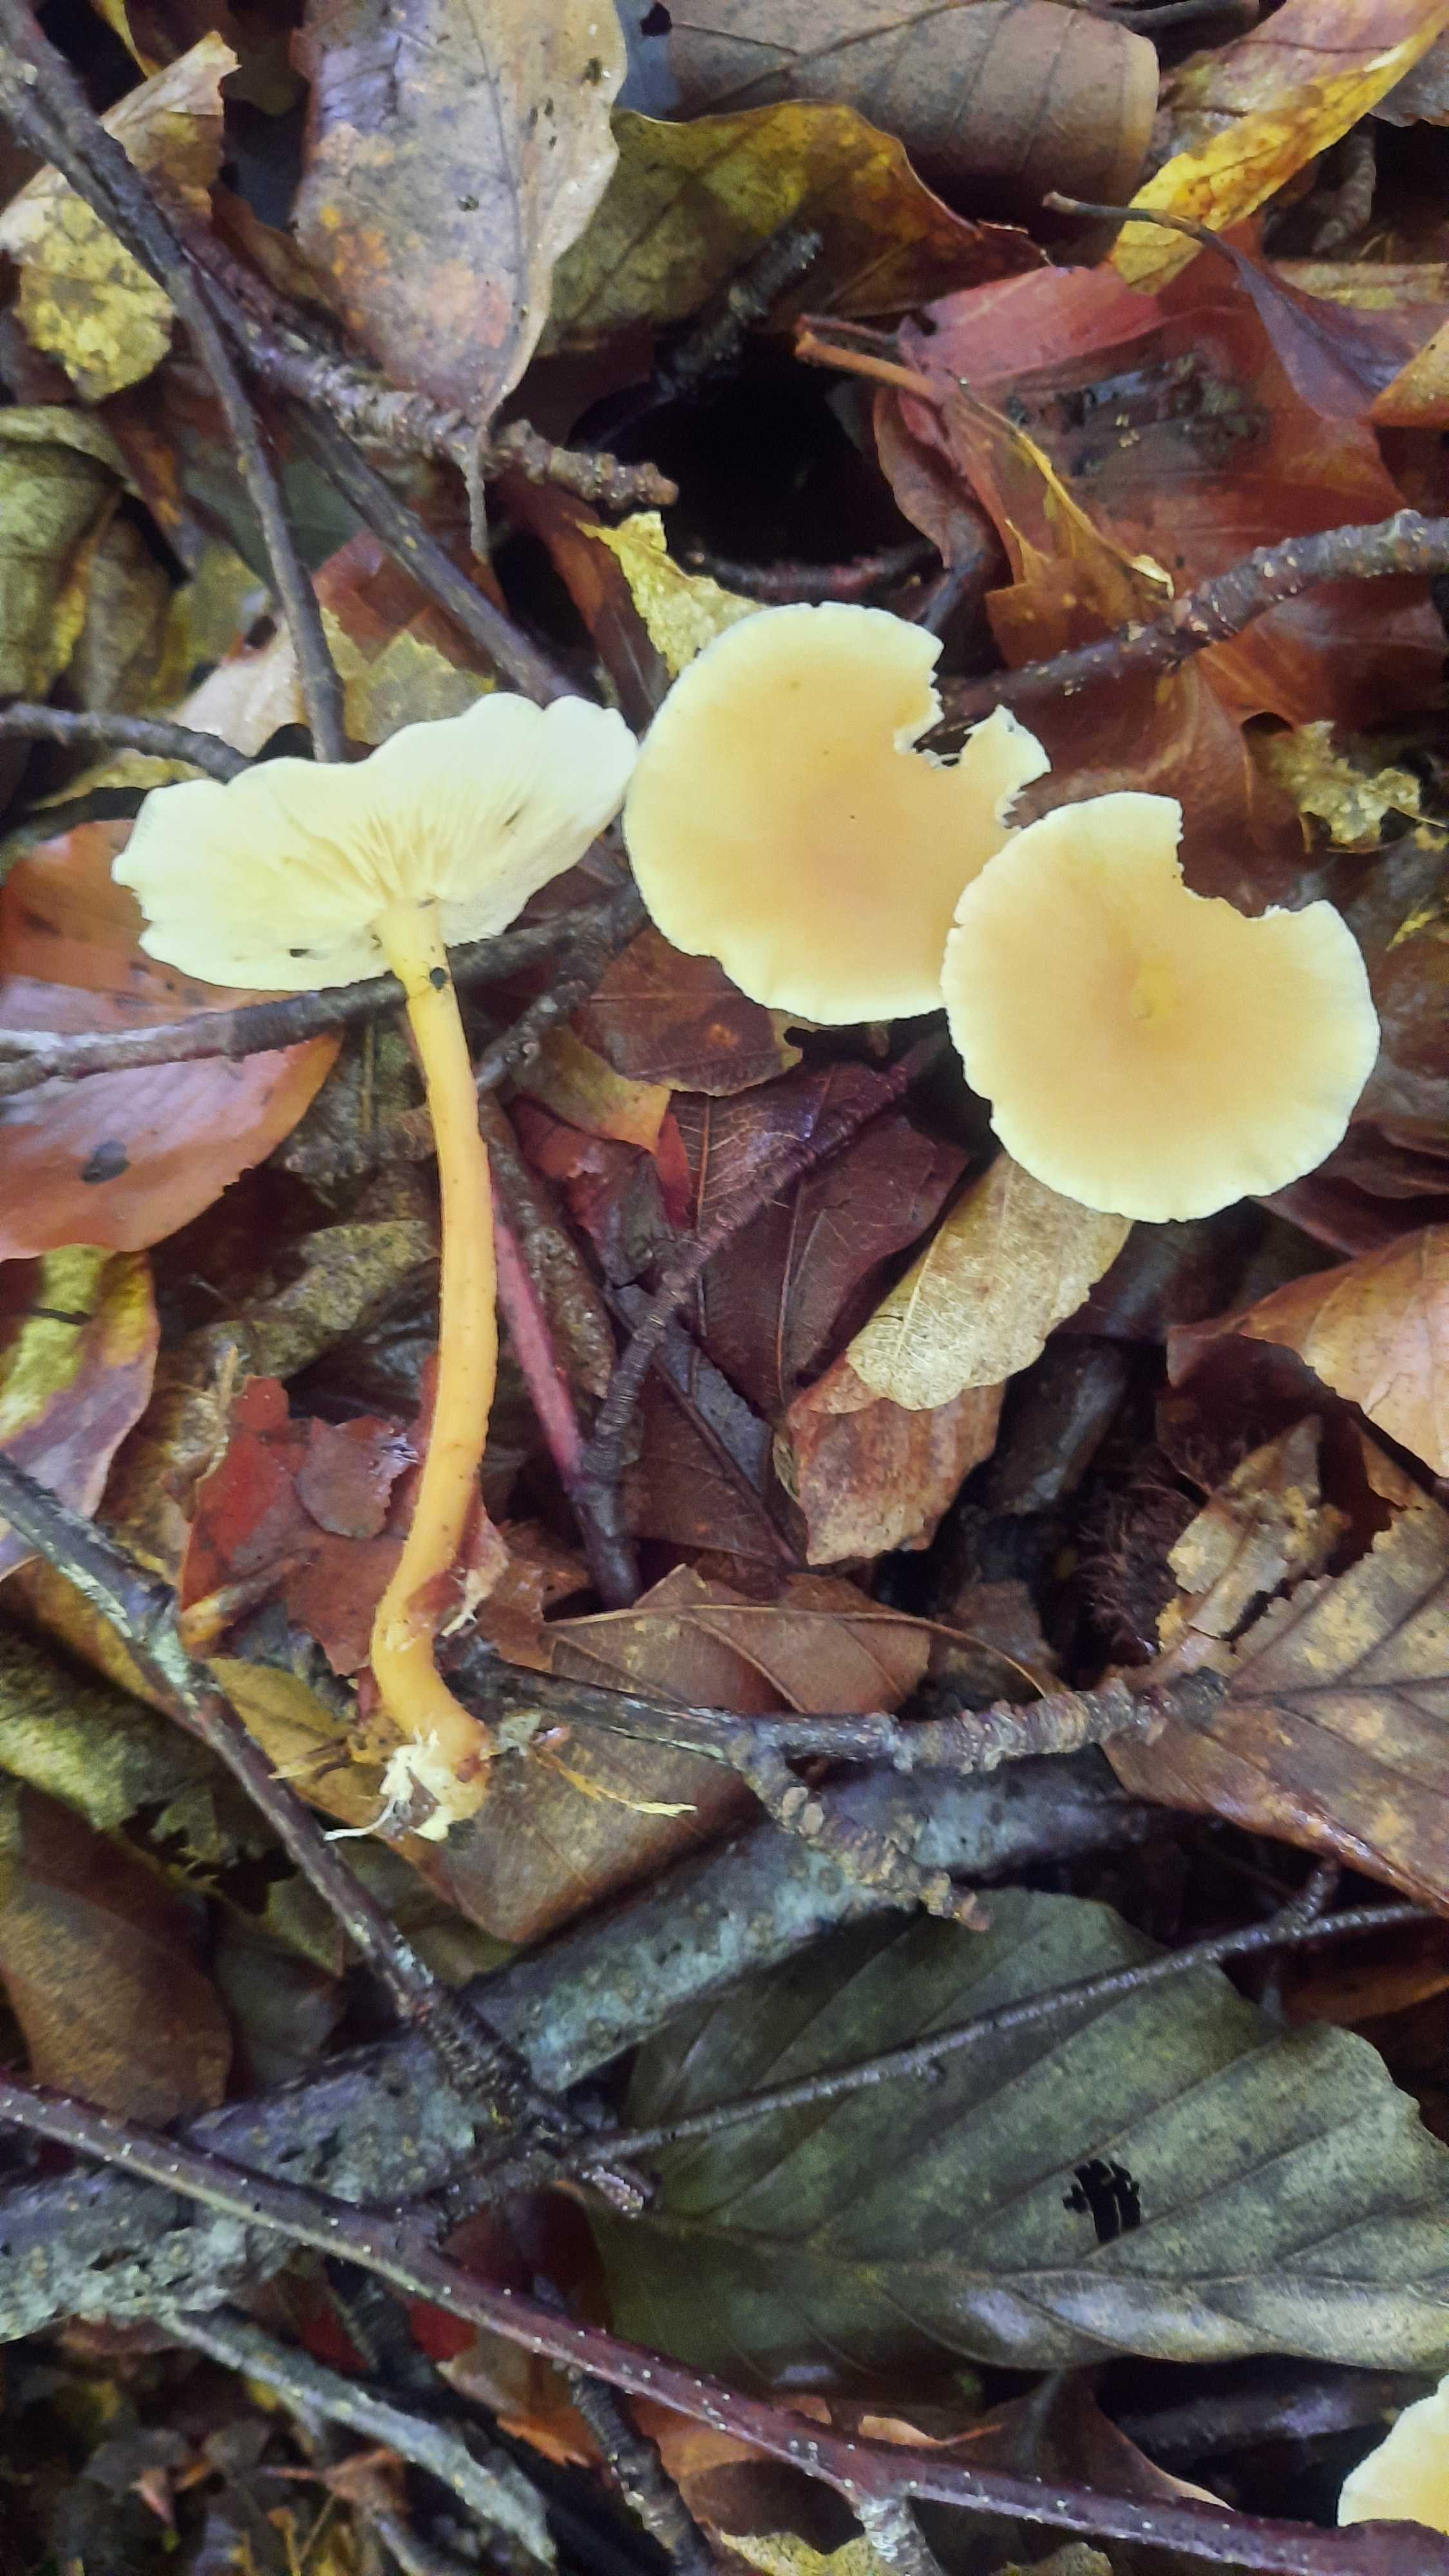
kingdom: Fungi
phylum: Basidiomycota
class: Agaricomycetes
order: Agaricales
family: Omphalotaceae
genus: Gymnopus
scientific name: Gymnopus
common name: fladhat
